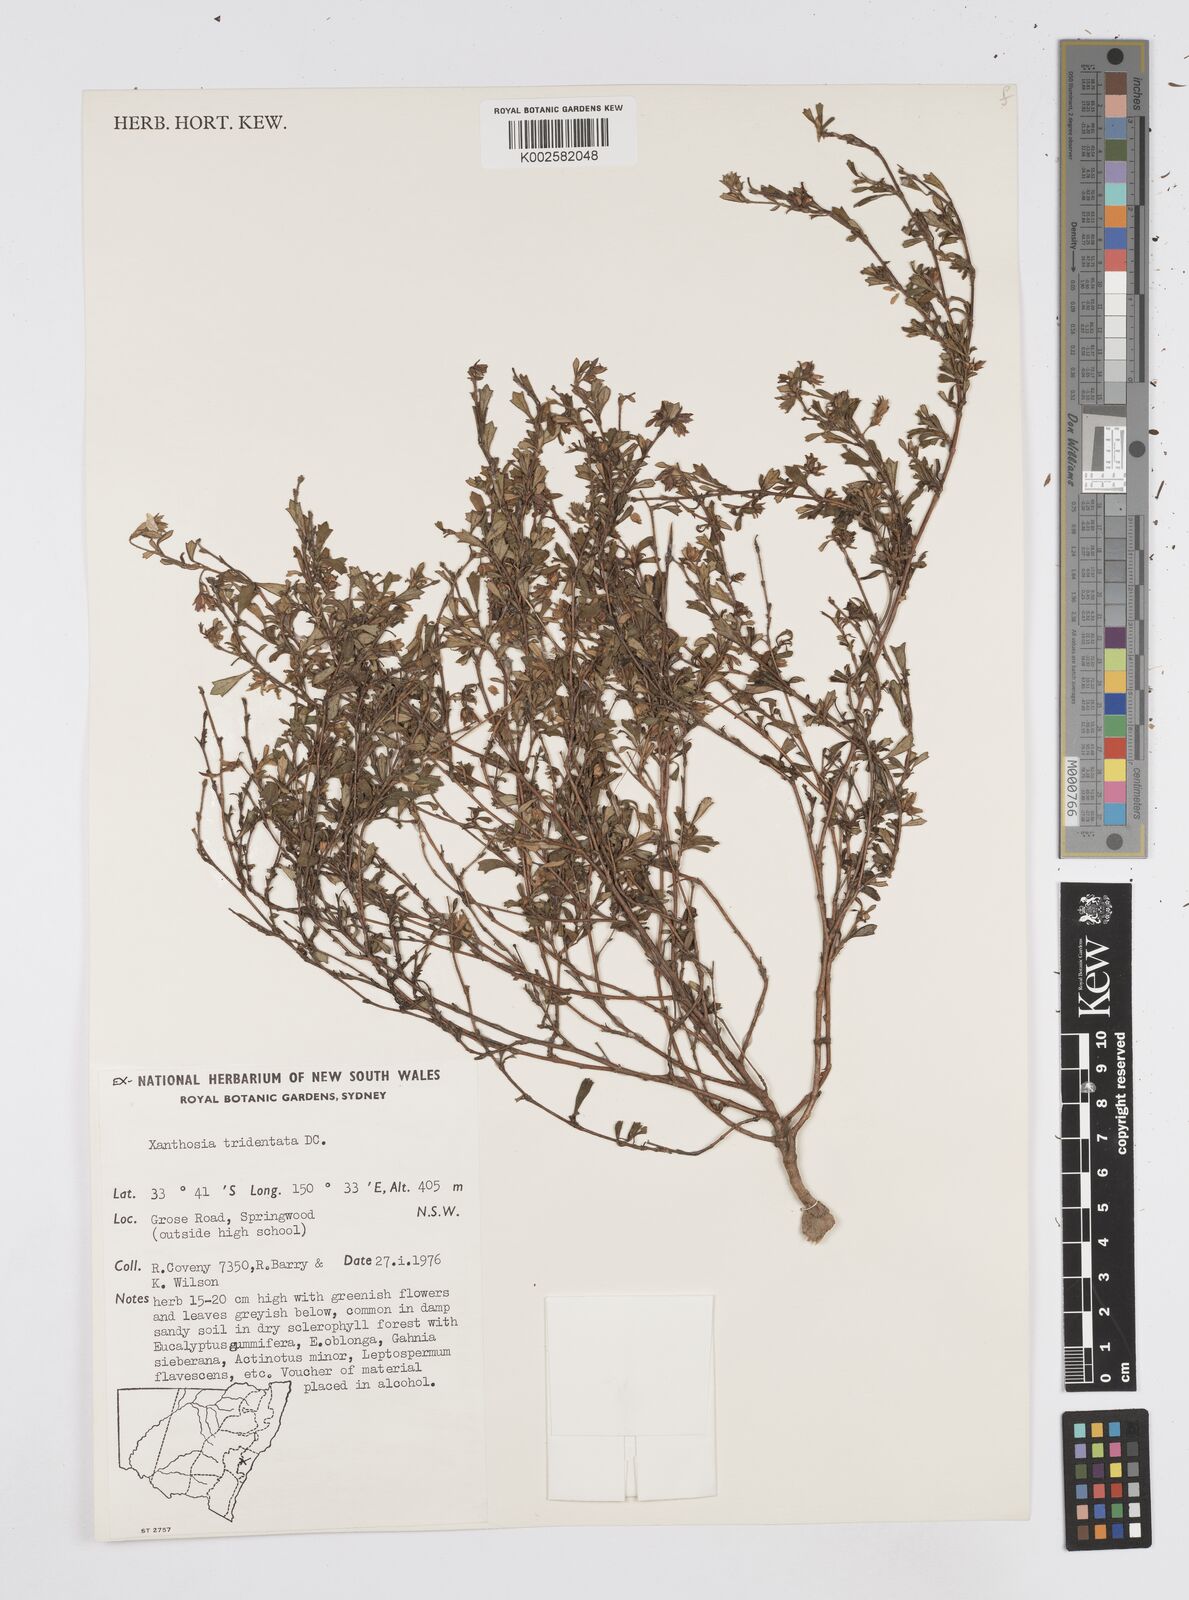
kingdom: Plantae
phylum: Tracheophyta
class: Magnoliopsida
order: Apiales
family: Apiaceae
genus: Xanthosia
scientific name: Xanthosia tridentata
